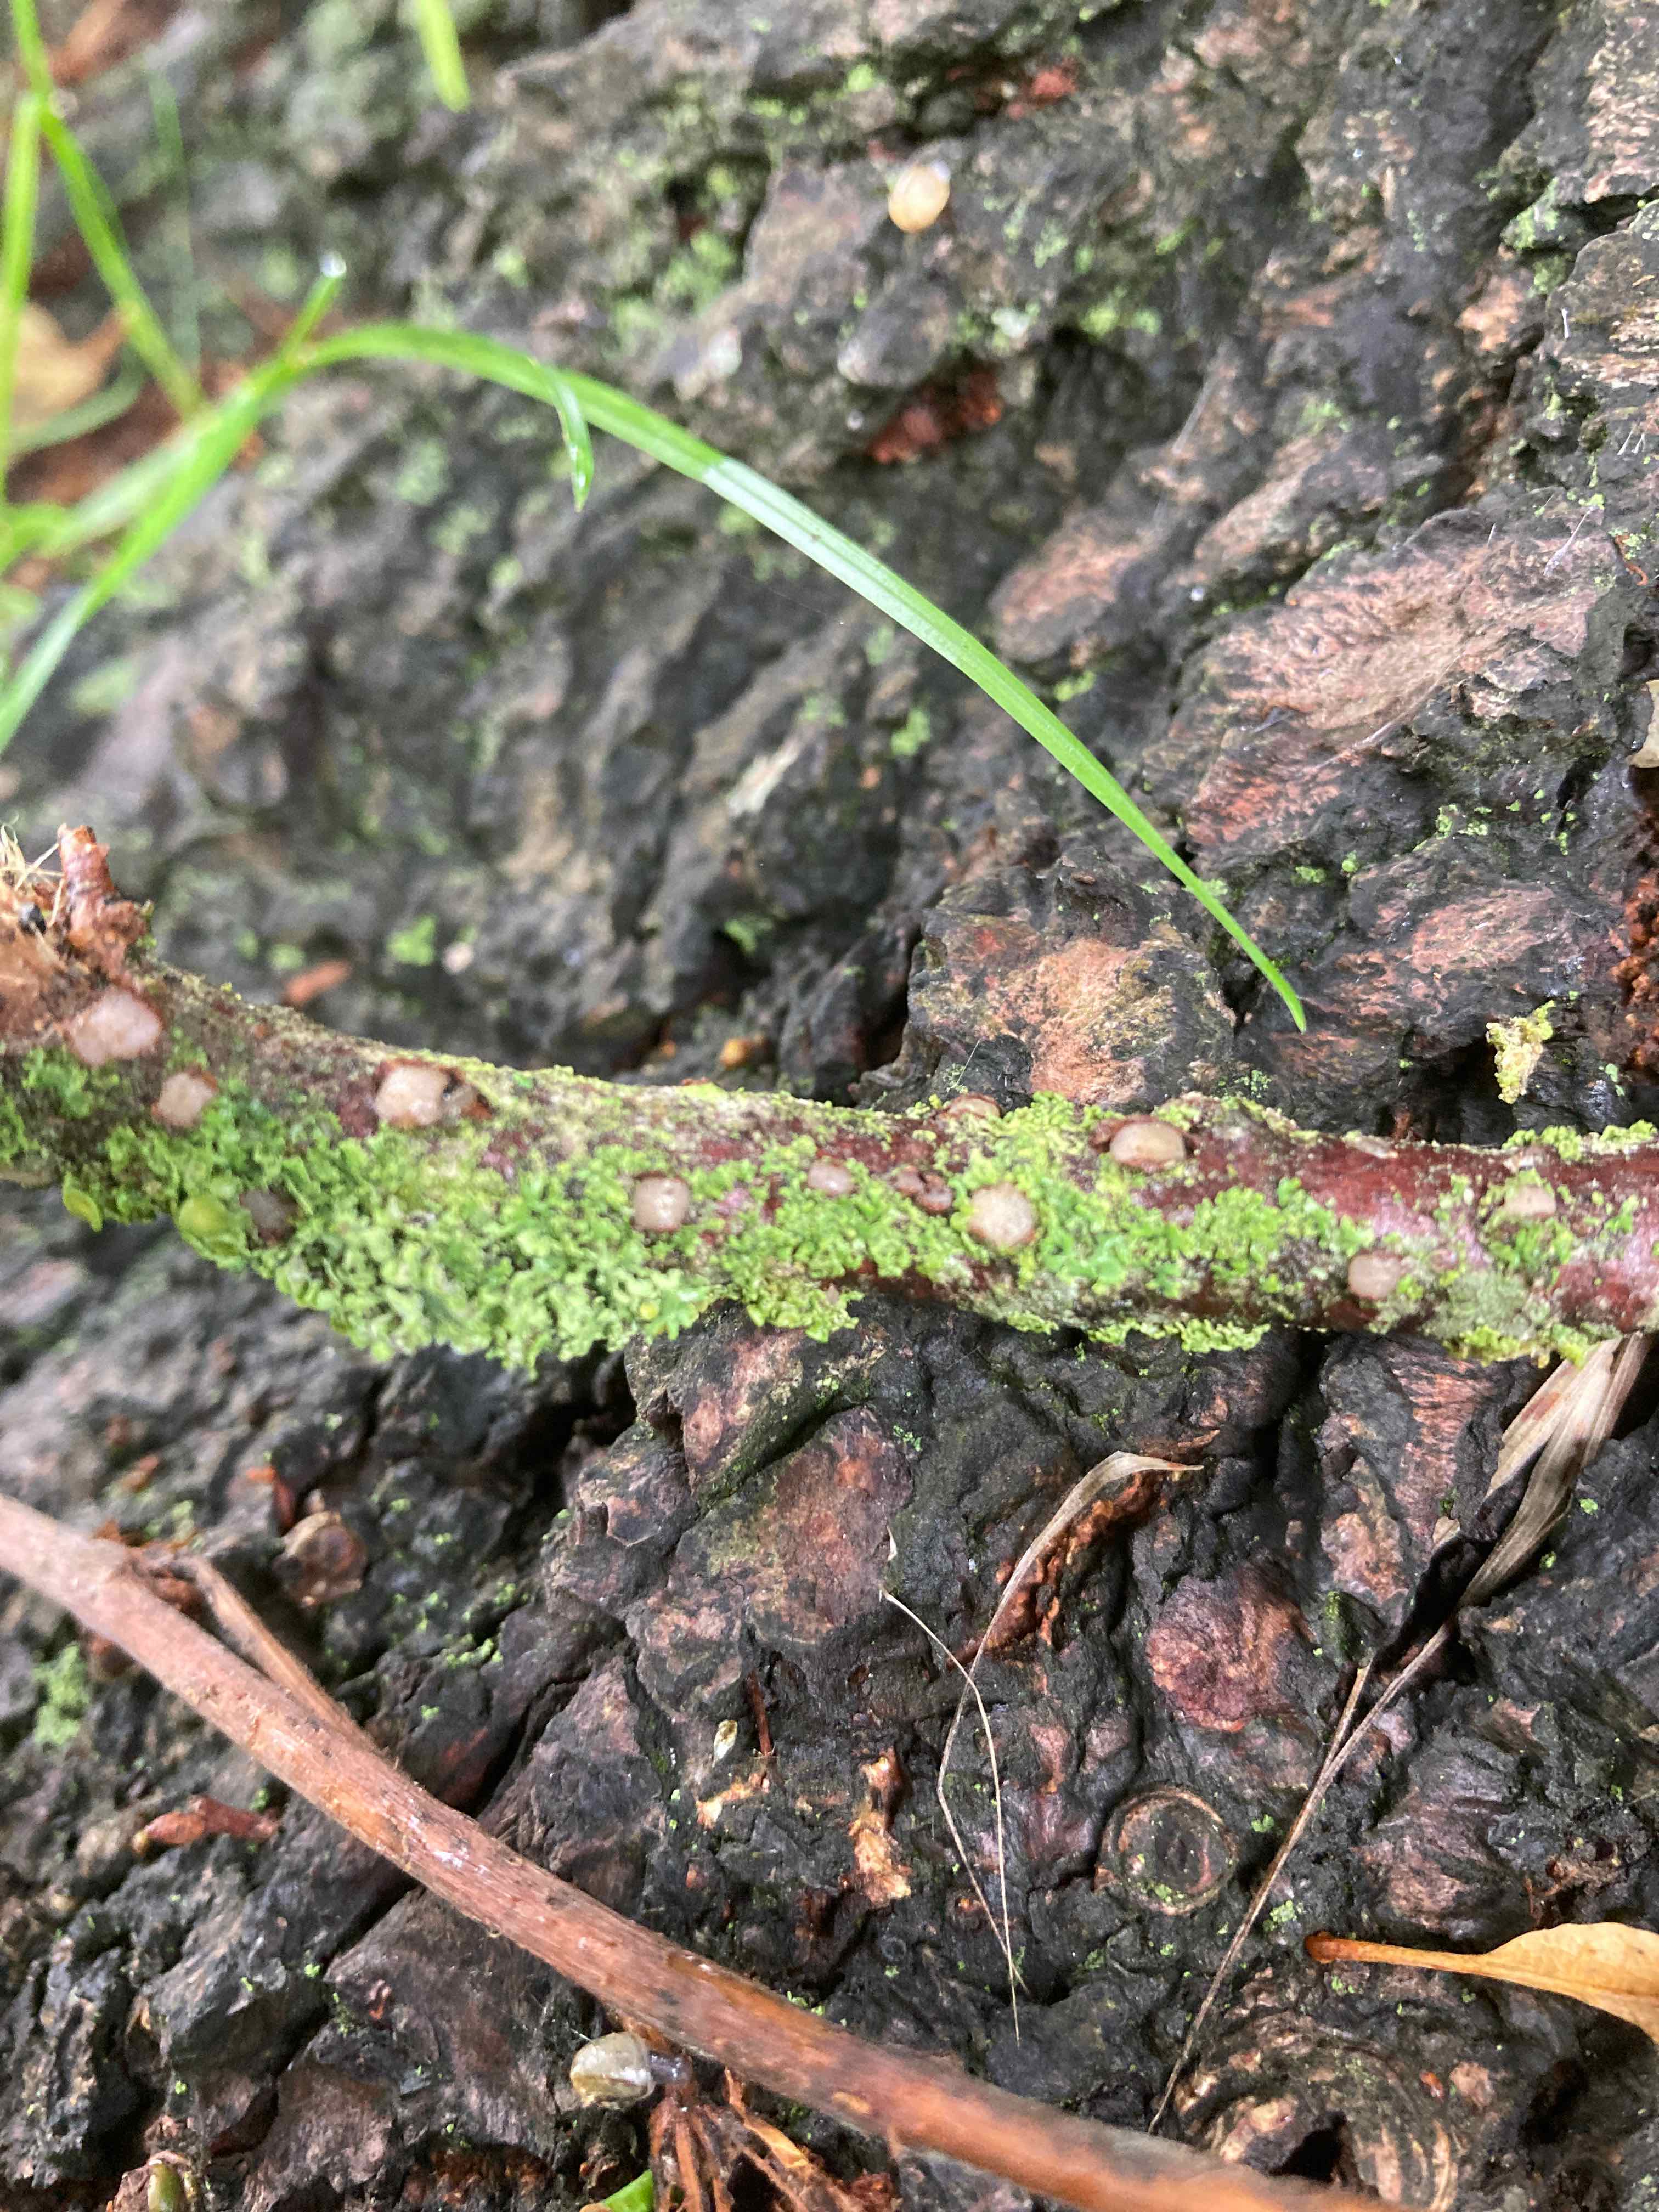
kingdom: Fungi
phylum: Basidiomycota
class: Pucciniomycetes
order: Platygloeales
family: Platygloeaceae
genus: Platygloea
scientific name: Platygloea disciformis
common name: linde-slimklat
